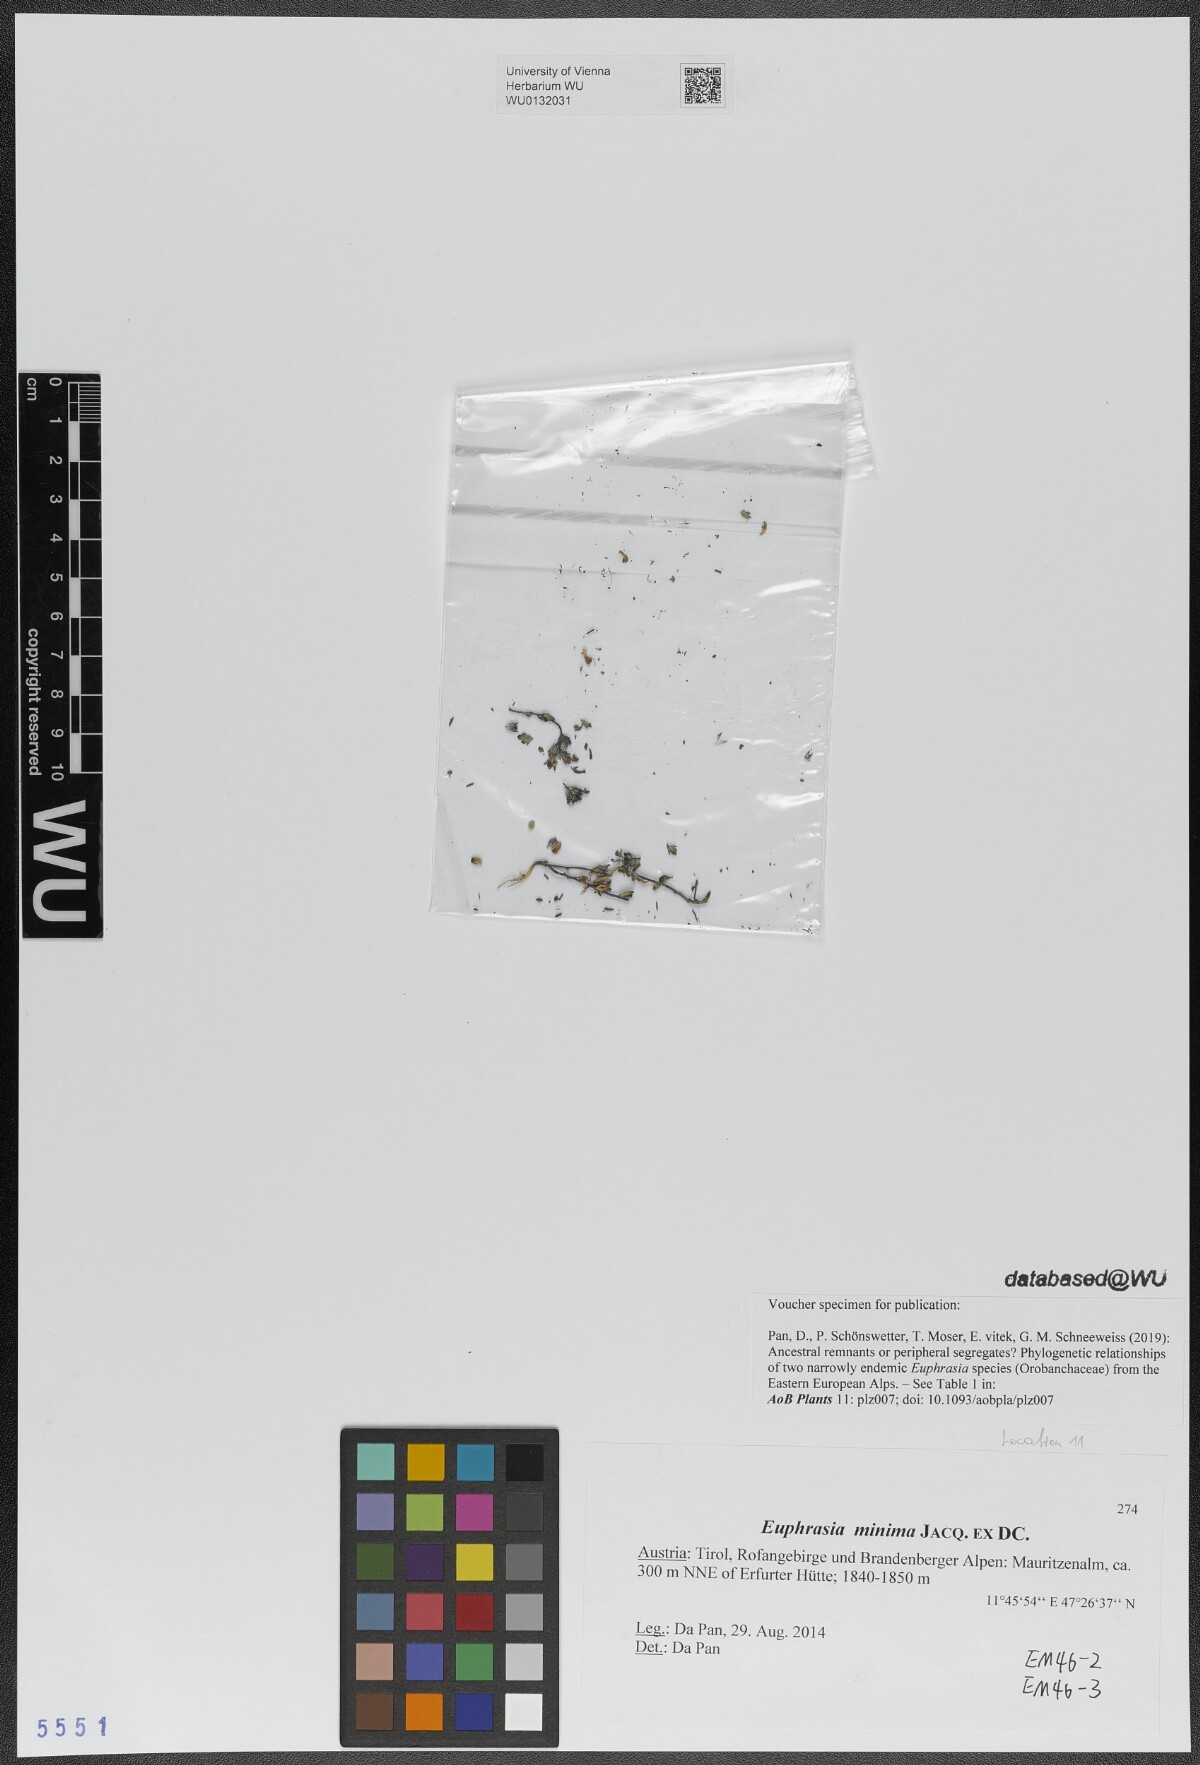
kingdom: Plantae
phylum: Tracheophyta
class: Magnoliopsida
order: Lamiales
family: Orobanchaceae
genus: Euphrasia
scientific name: Euphrasia minima
